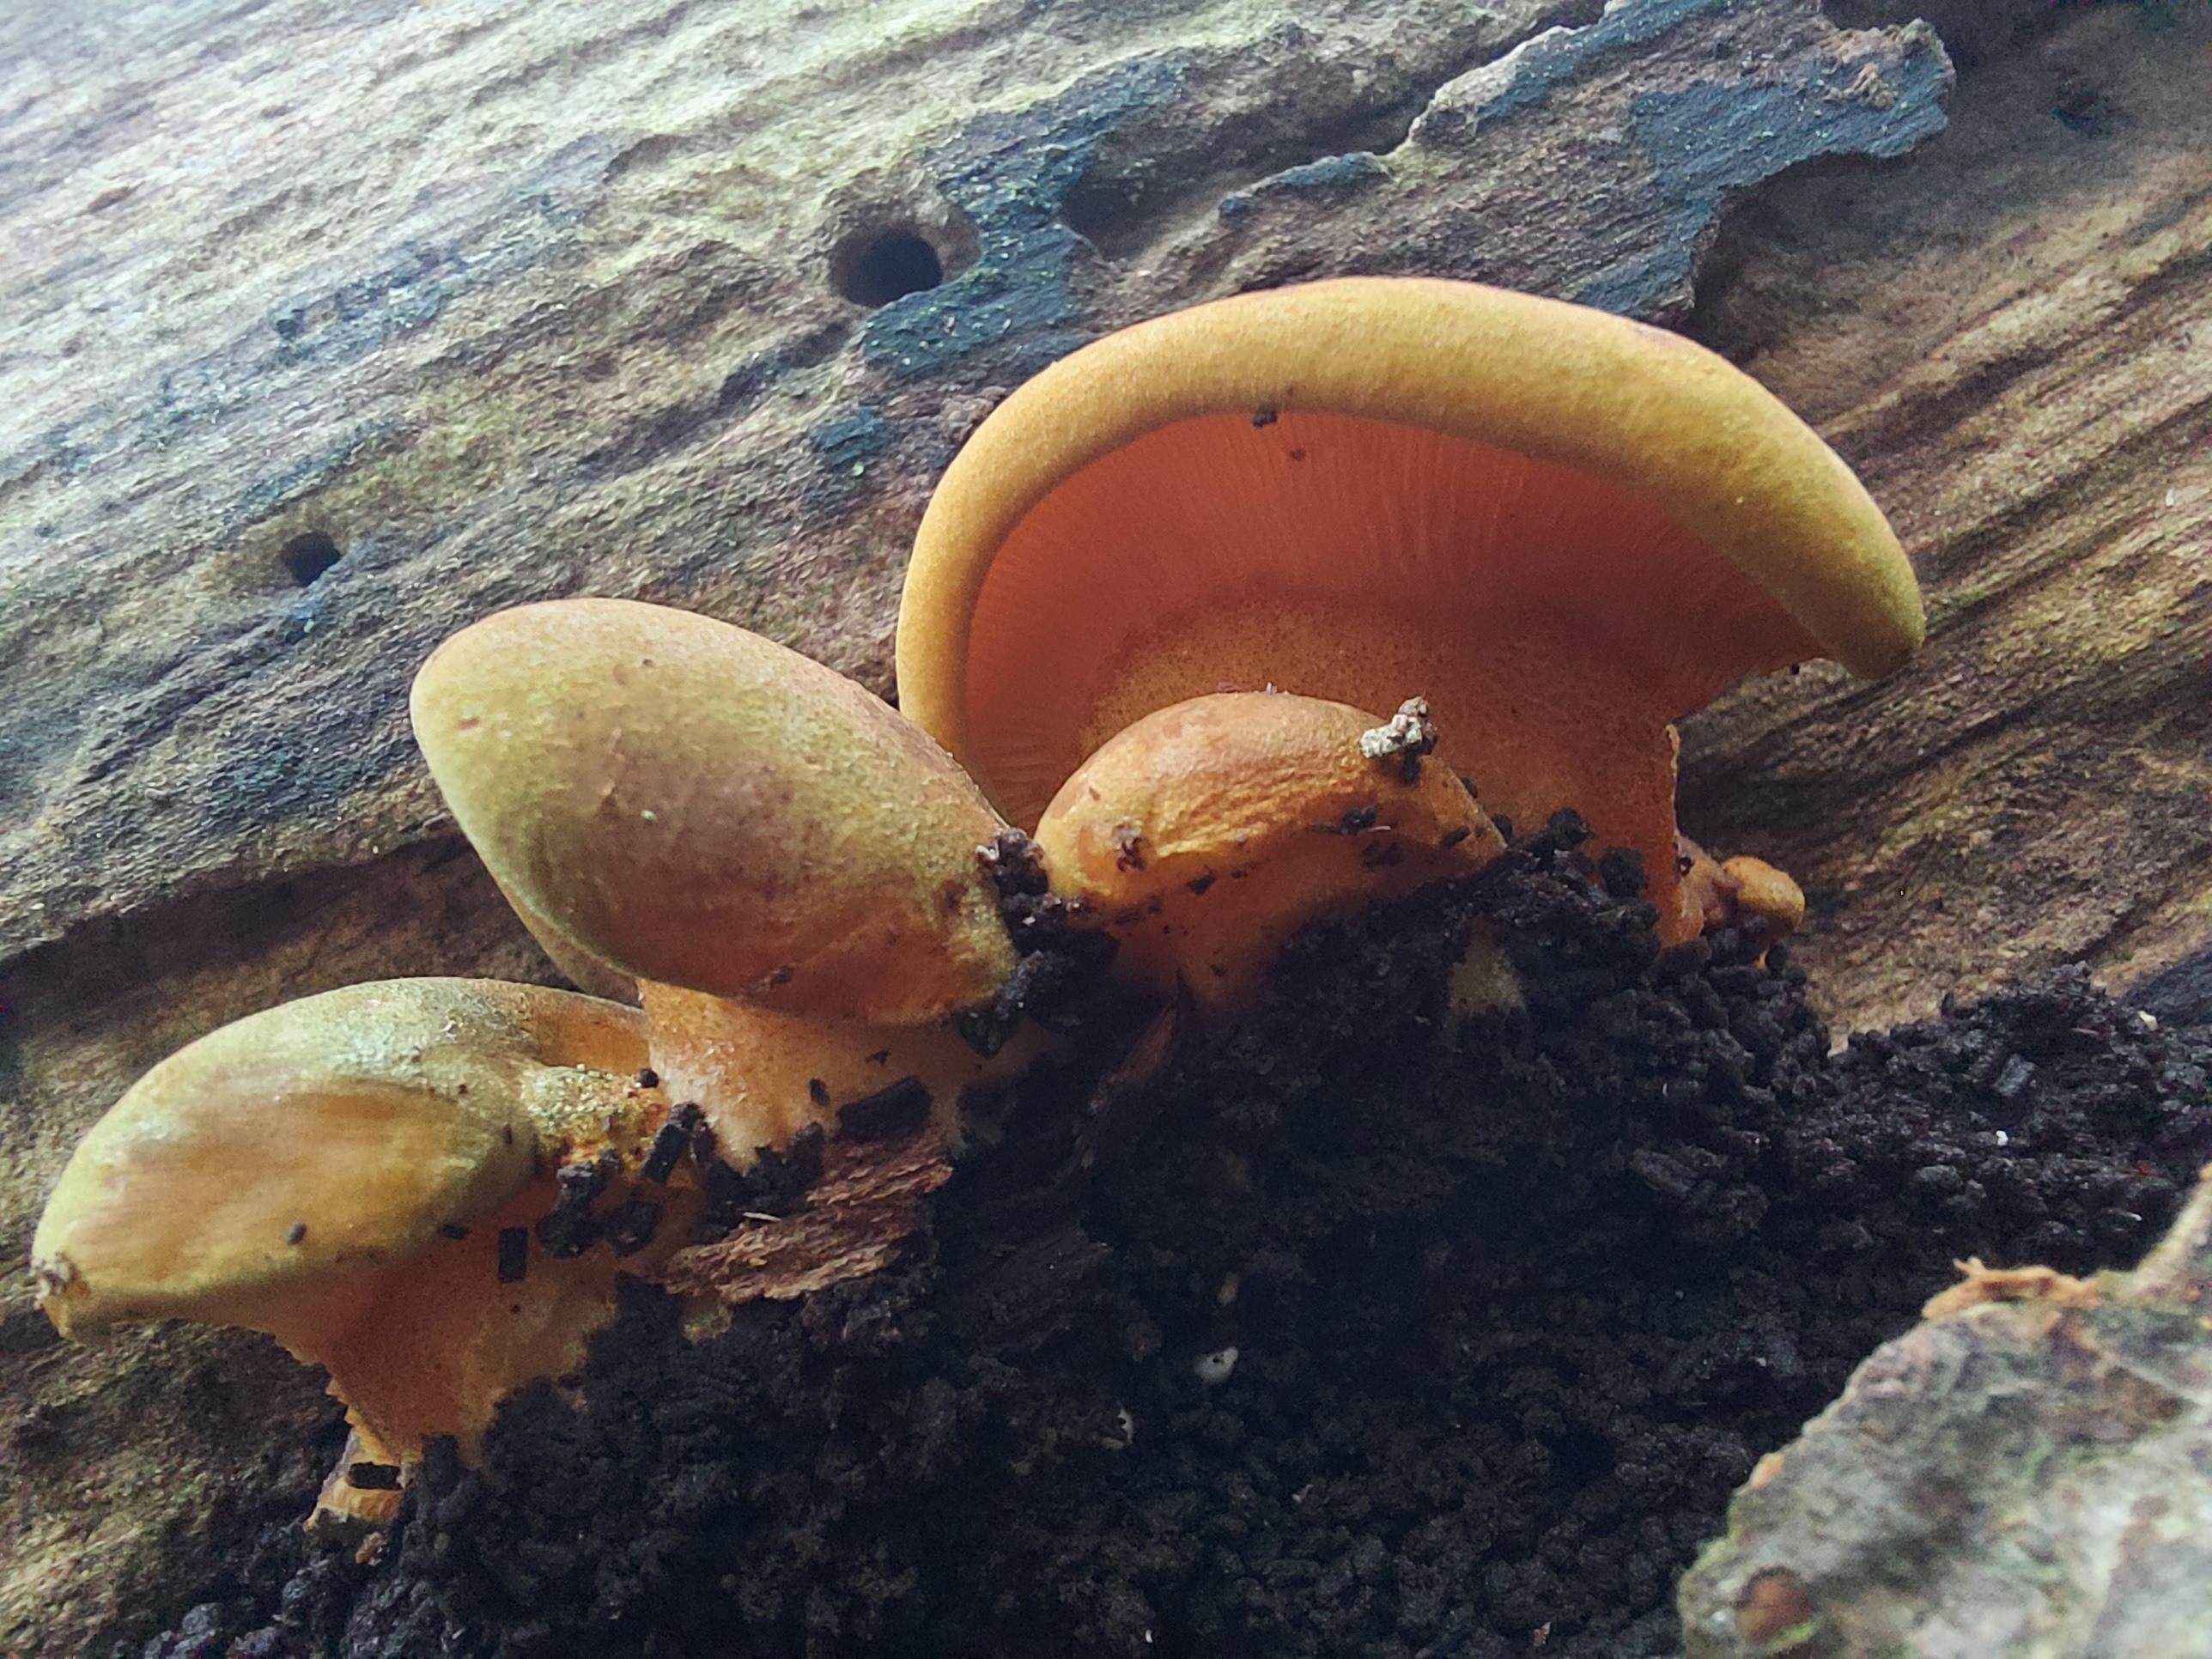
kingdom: Fungi
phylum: Basidiomycota
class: Agaricomycetes
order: Agaricales
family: Sarcomyxaceae
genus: Sarcomyxa
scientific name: Sarcomyxa serotina
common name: gummihat
